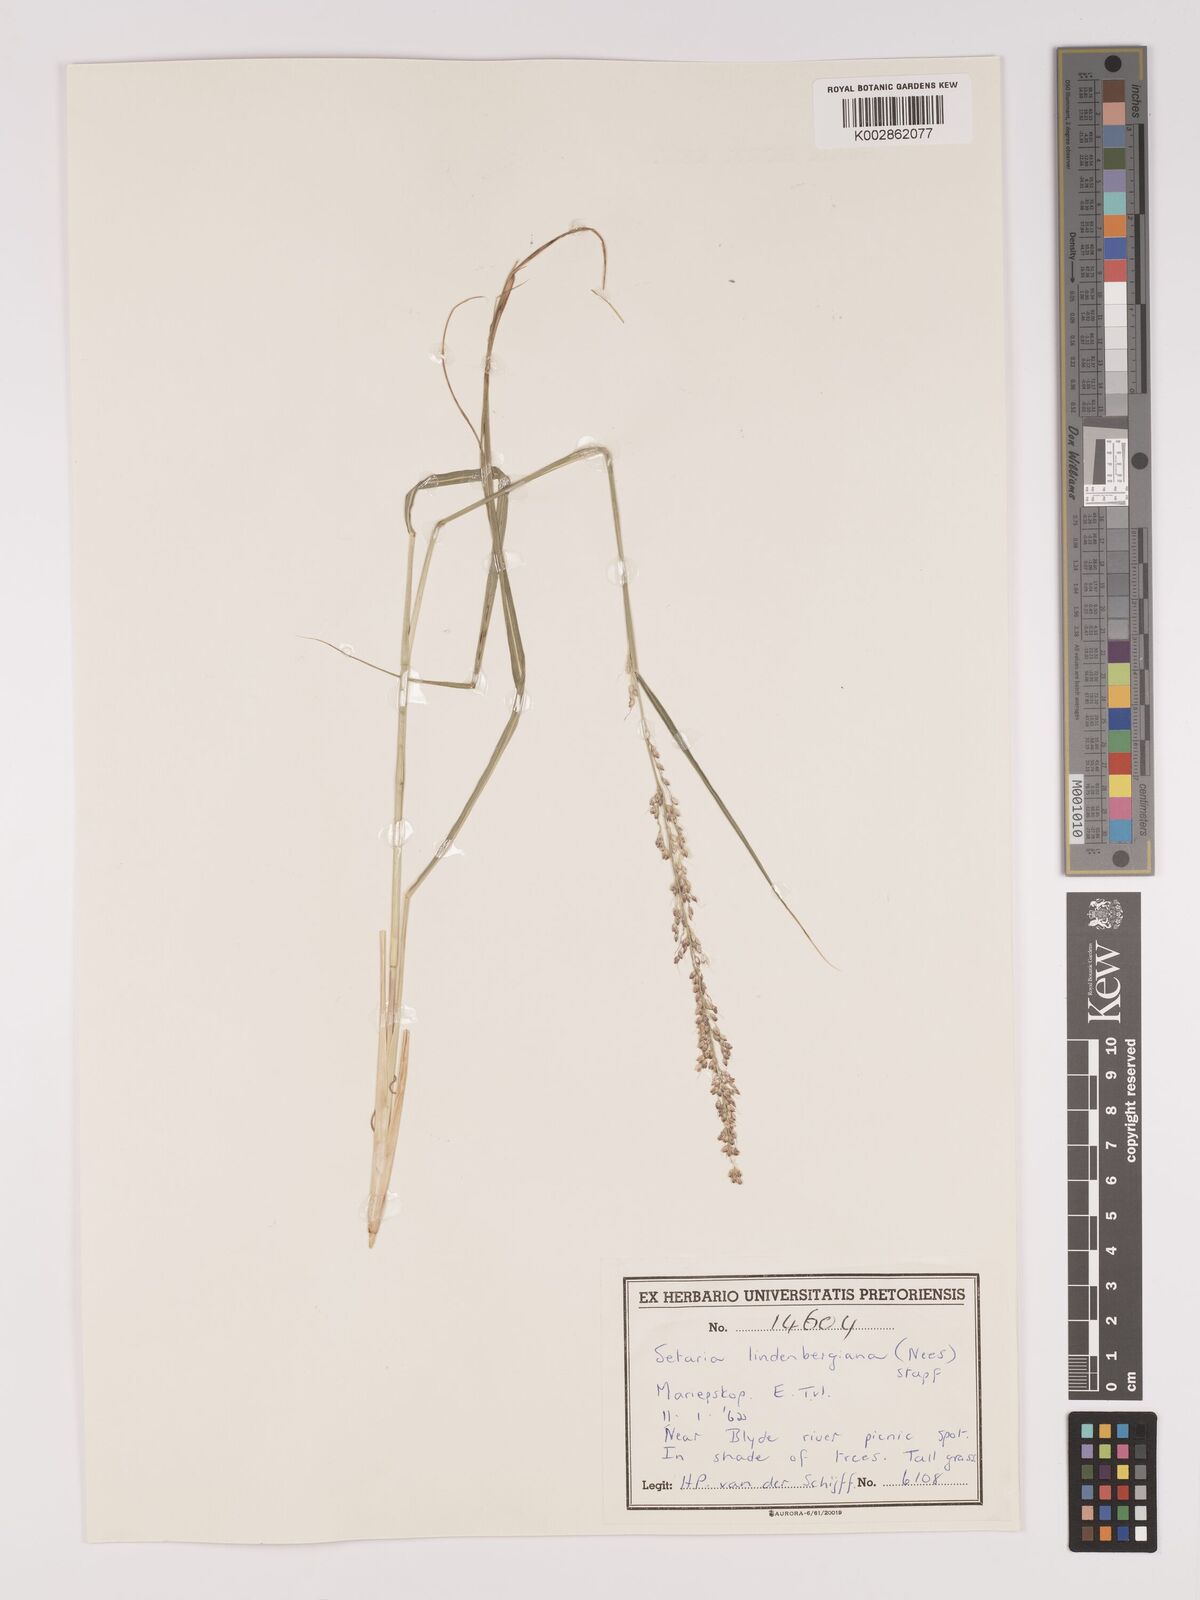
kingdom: Plantae
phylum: Tracheophyta
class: Liliopsida
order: Poales
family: Poaceae
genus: Setaria
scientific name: Setaria lindenbergiana
